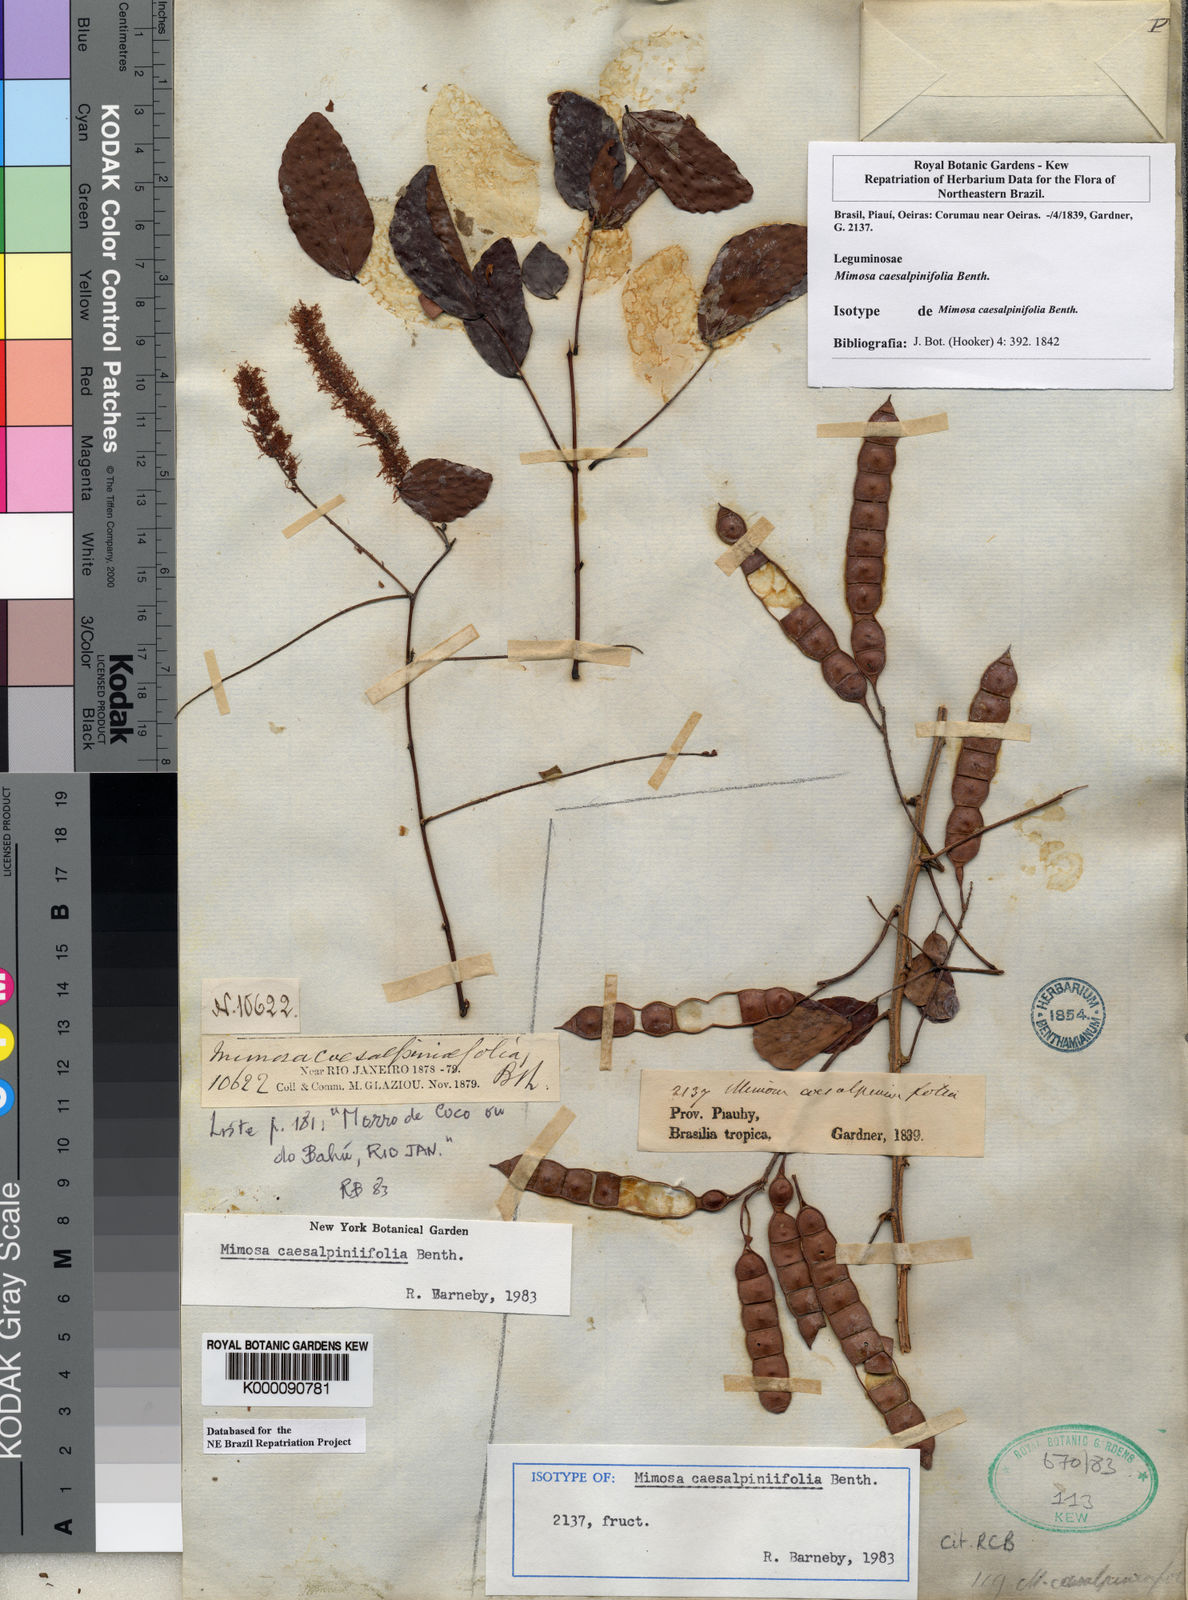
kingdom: Plantae
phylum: Tracheophyta
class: Magnoliopsida
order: Fabales
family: Fabaceae
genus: Mimosa
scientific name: Mimosa caesalpiniifolia
